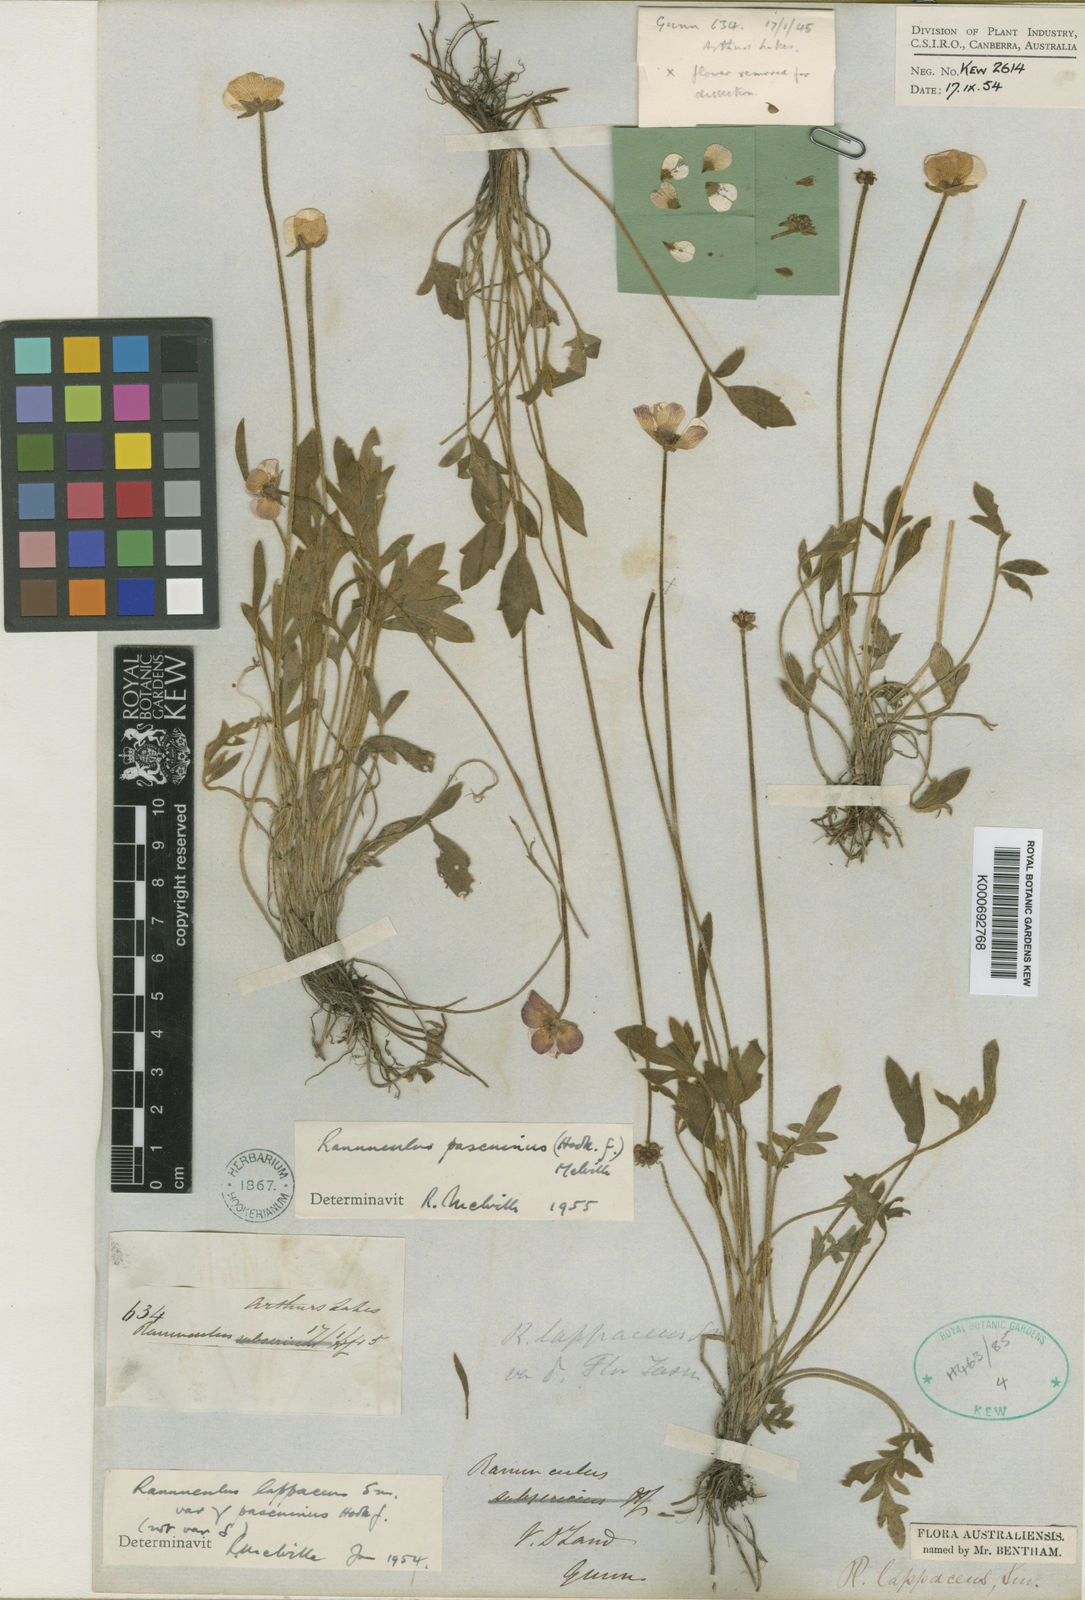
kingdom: Plantae
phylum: Tracheophyta
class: Magnoliopsida
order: Ranunculales
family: Ranunculaceae
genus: Ranunculus
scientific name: Ranunculus pascuinus
